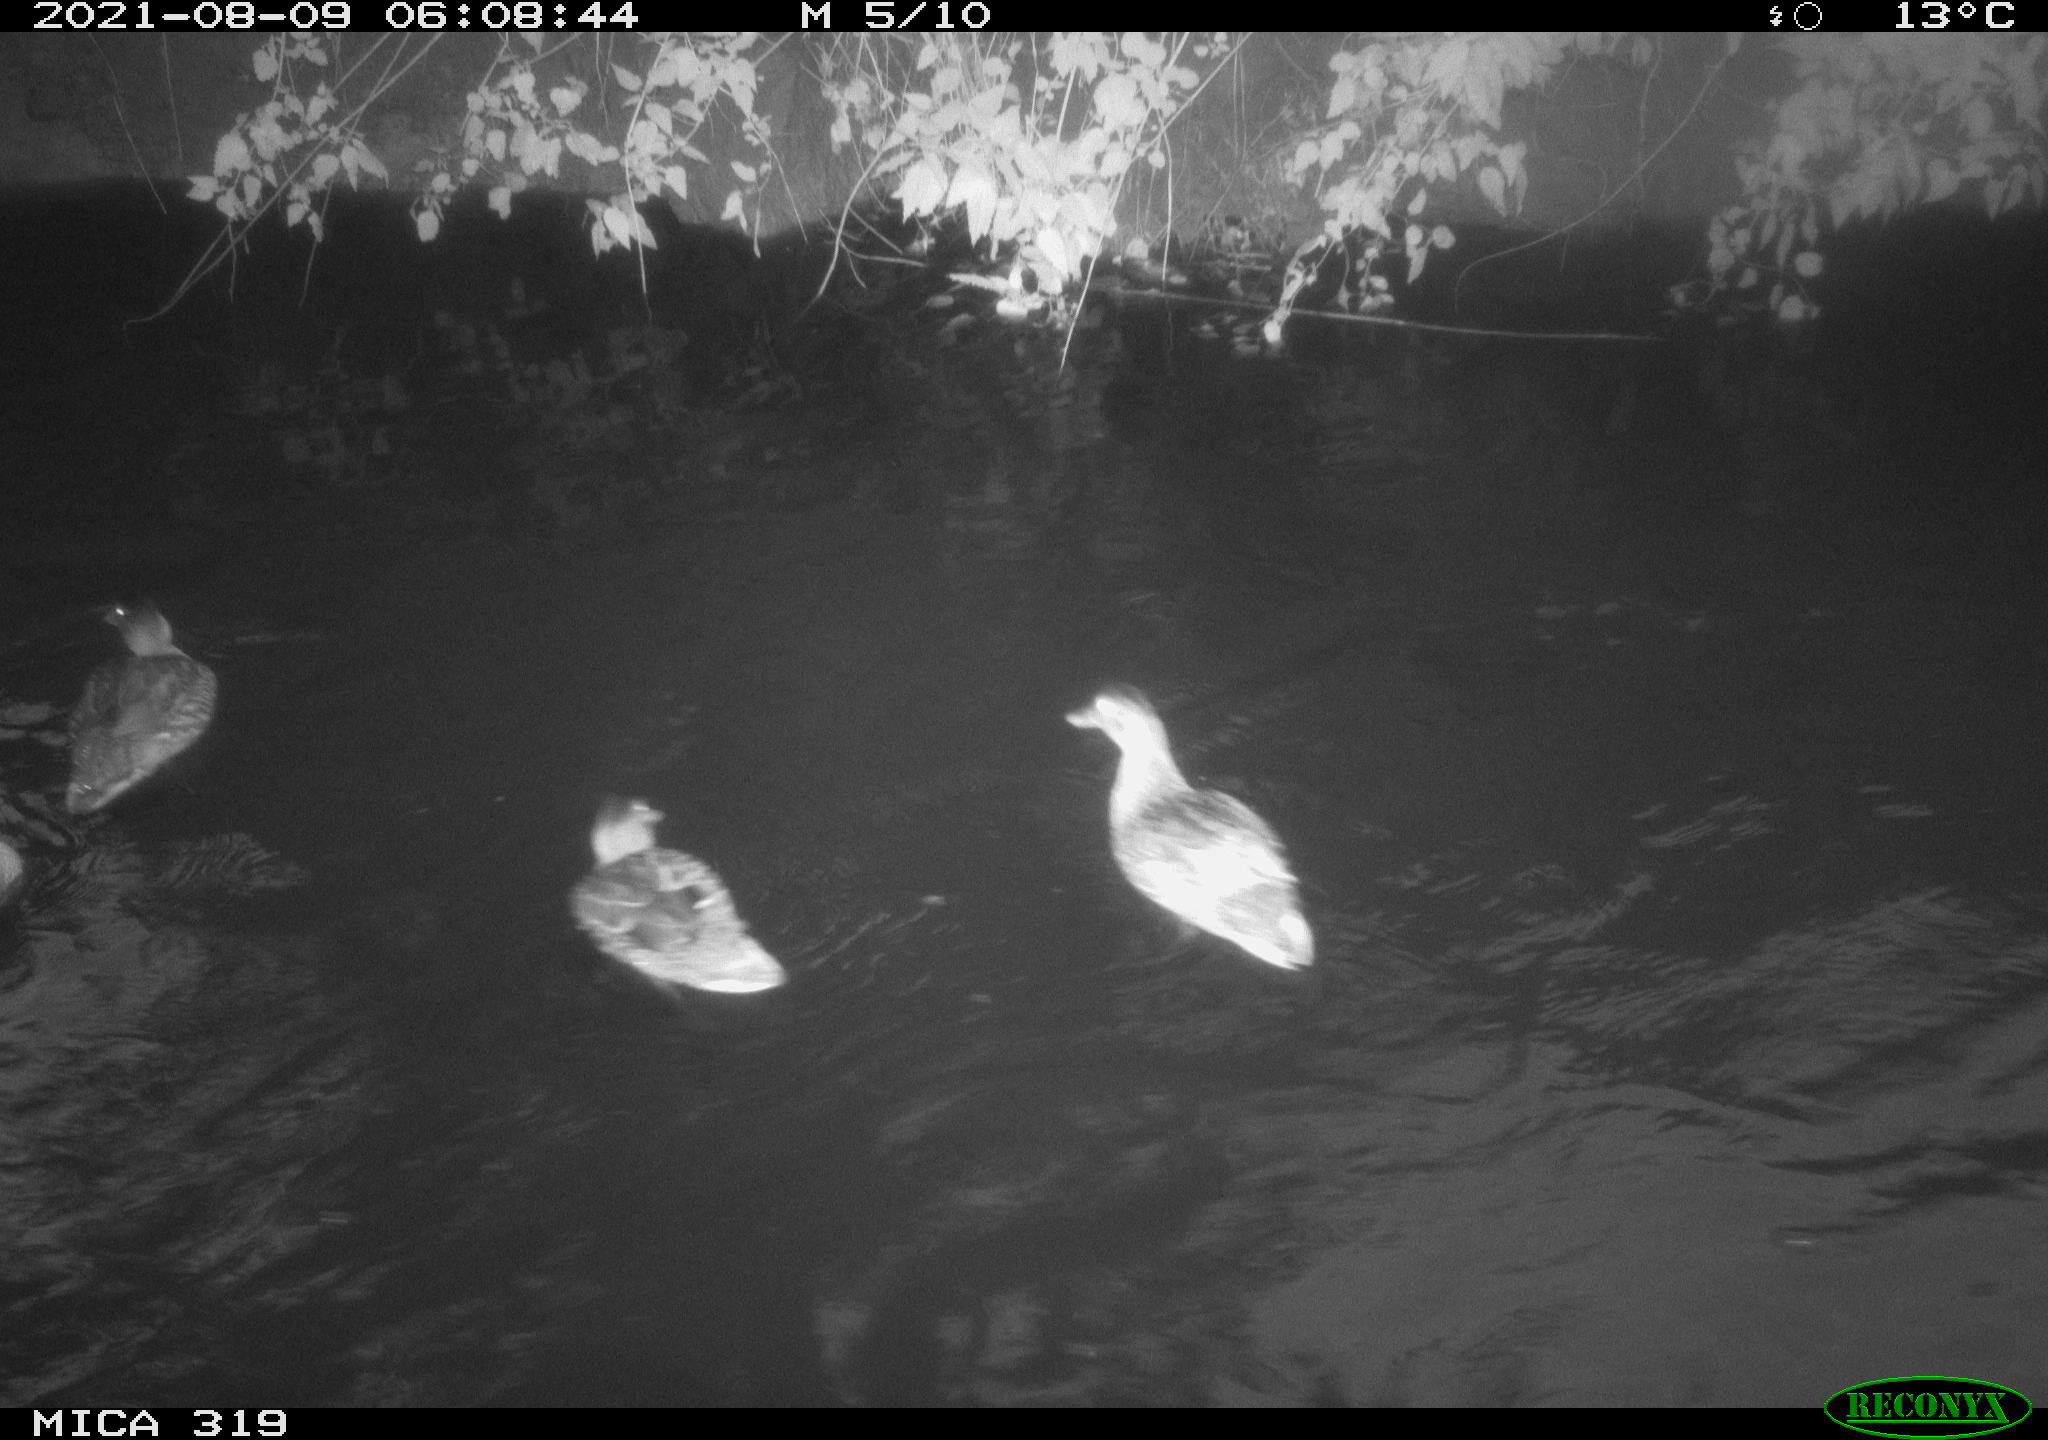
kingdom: Animalia
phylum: Chordata
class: Aves
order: Anseriformes
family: Anatidae
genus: Anas
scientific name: Anas platyrhynchos
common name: Mallard
